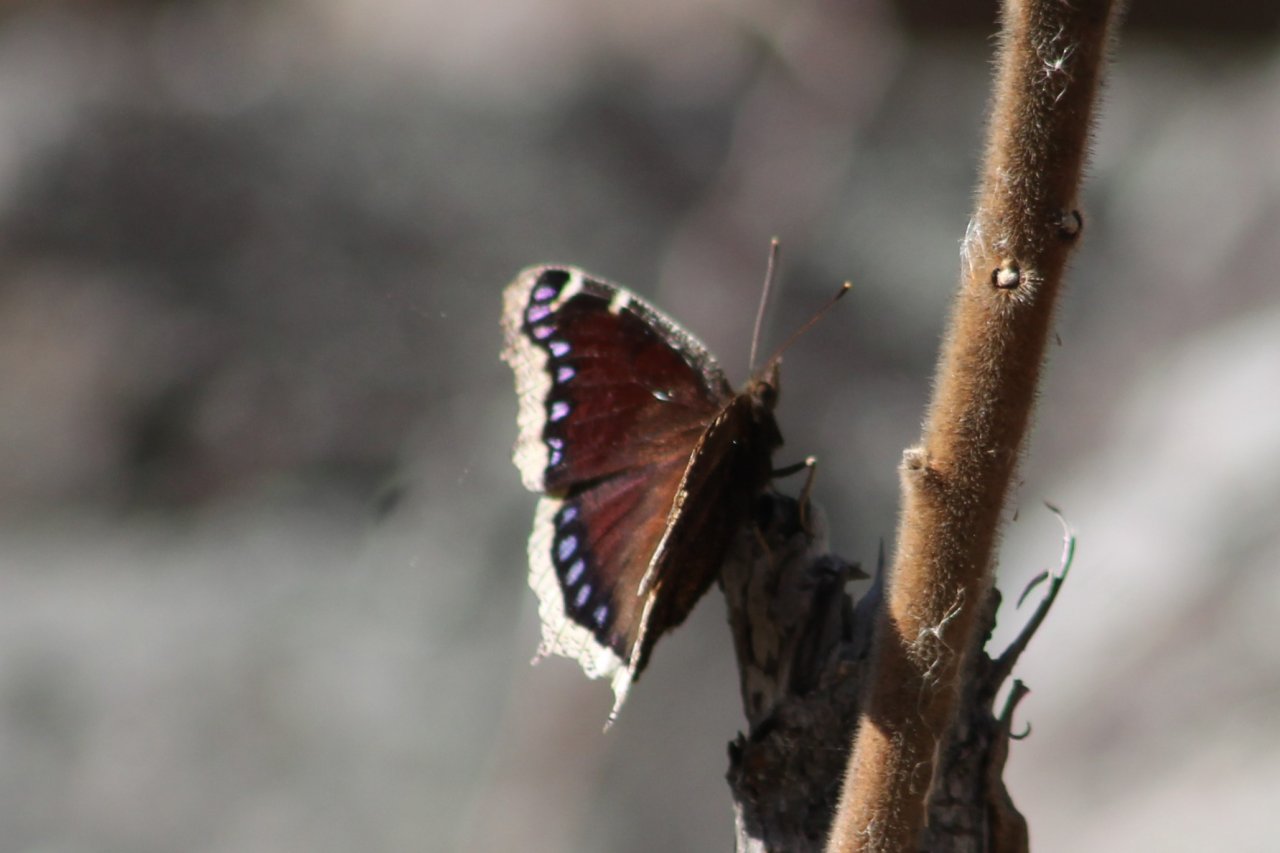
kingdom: Animalia
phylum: Arthropoda
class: Insecta
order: Lepidoptera
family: Nymphalidae
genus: Nymphalis
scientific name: Nymphalis antiopa
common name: Mourning Cloak
